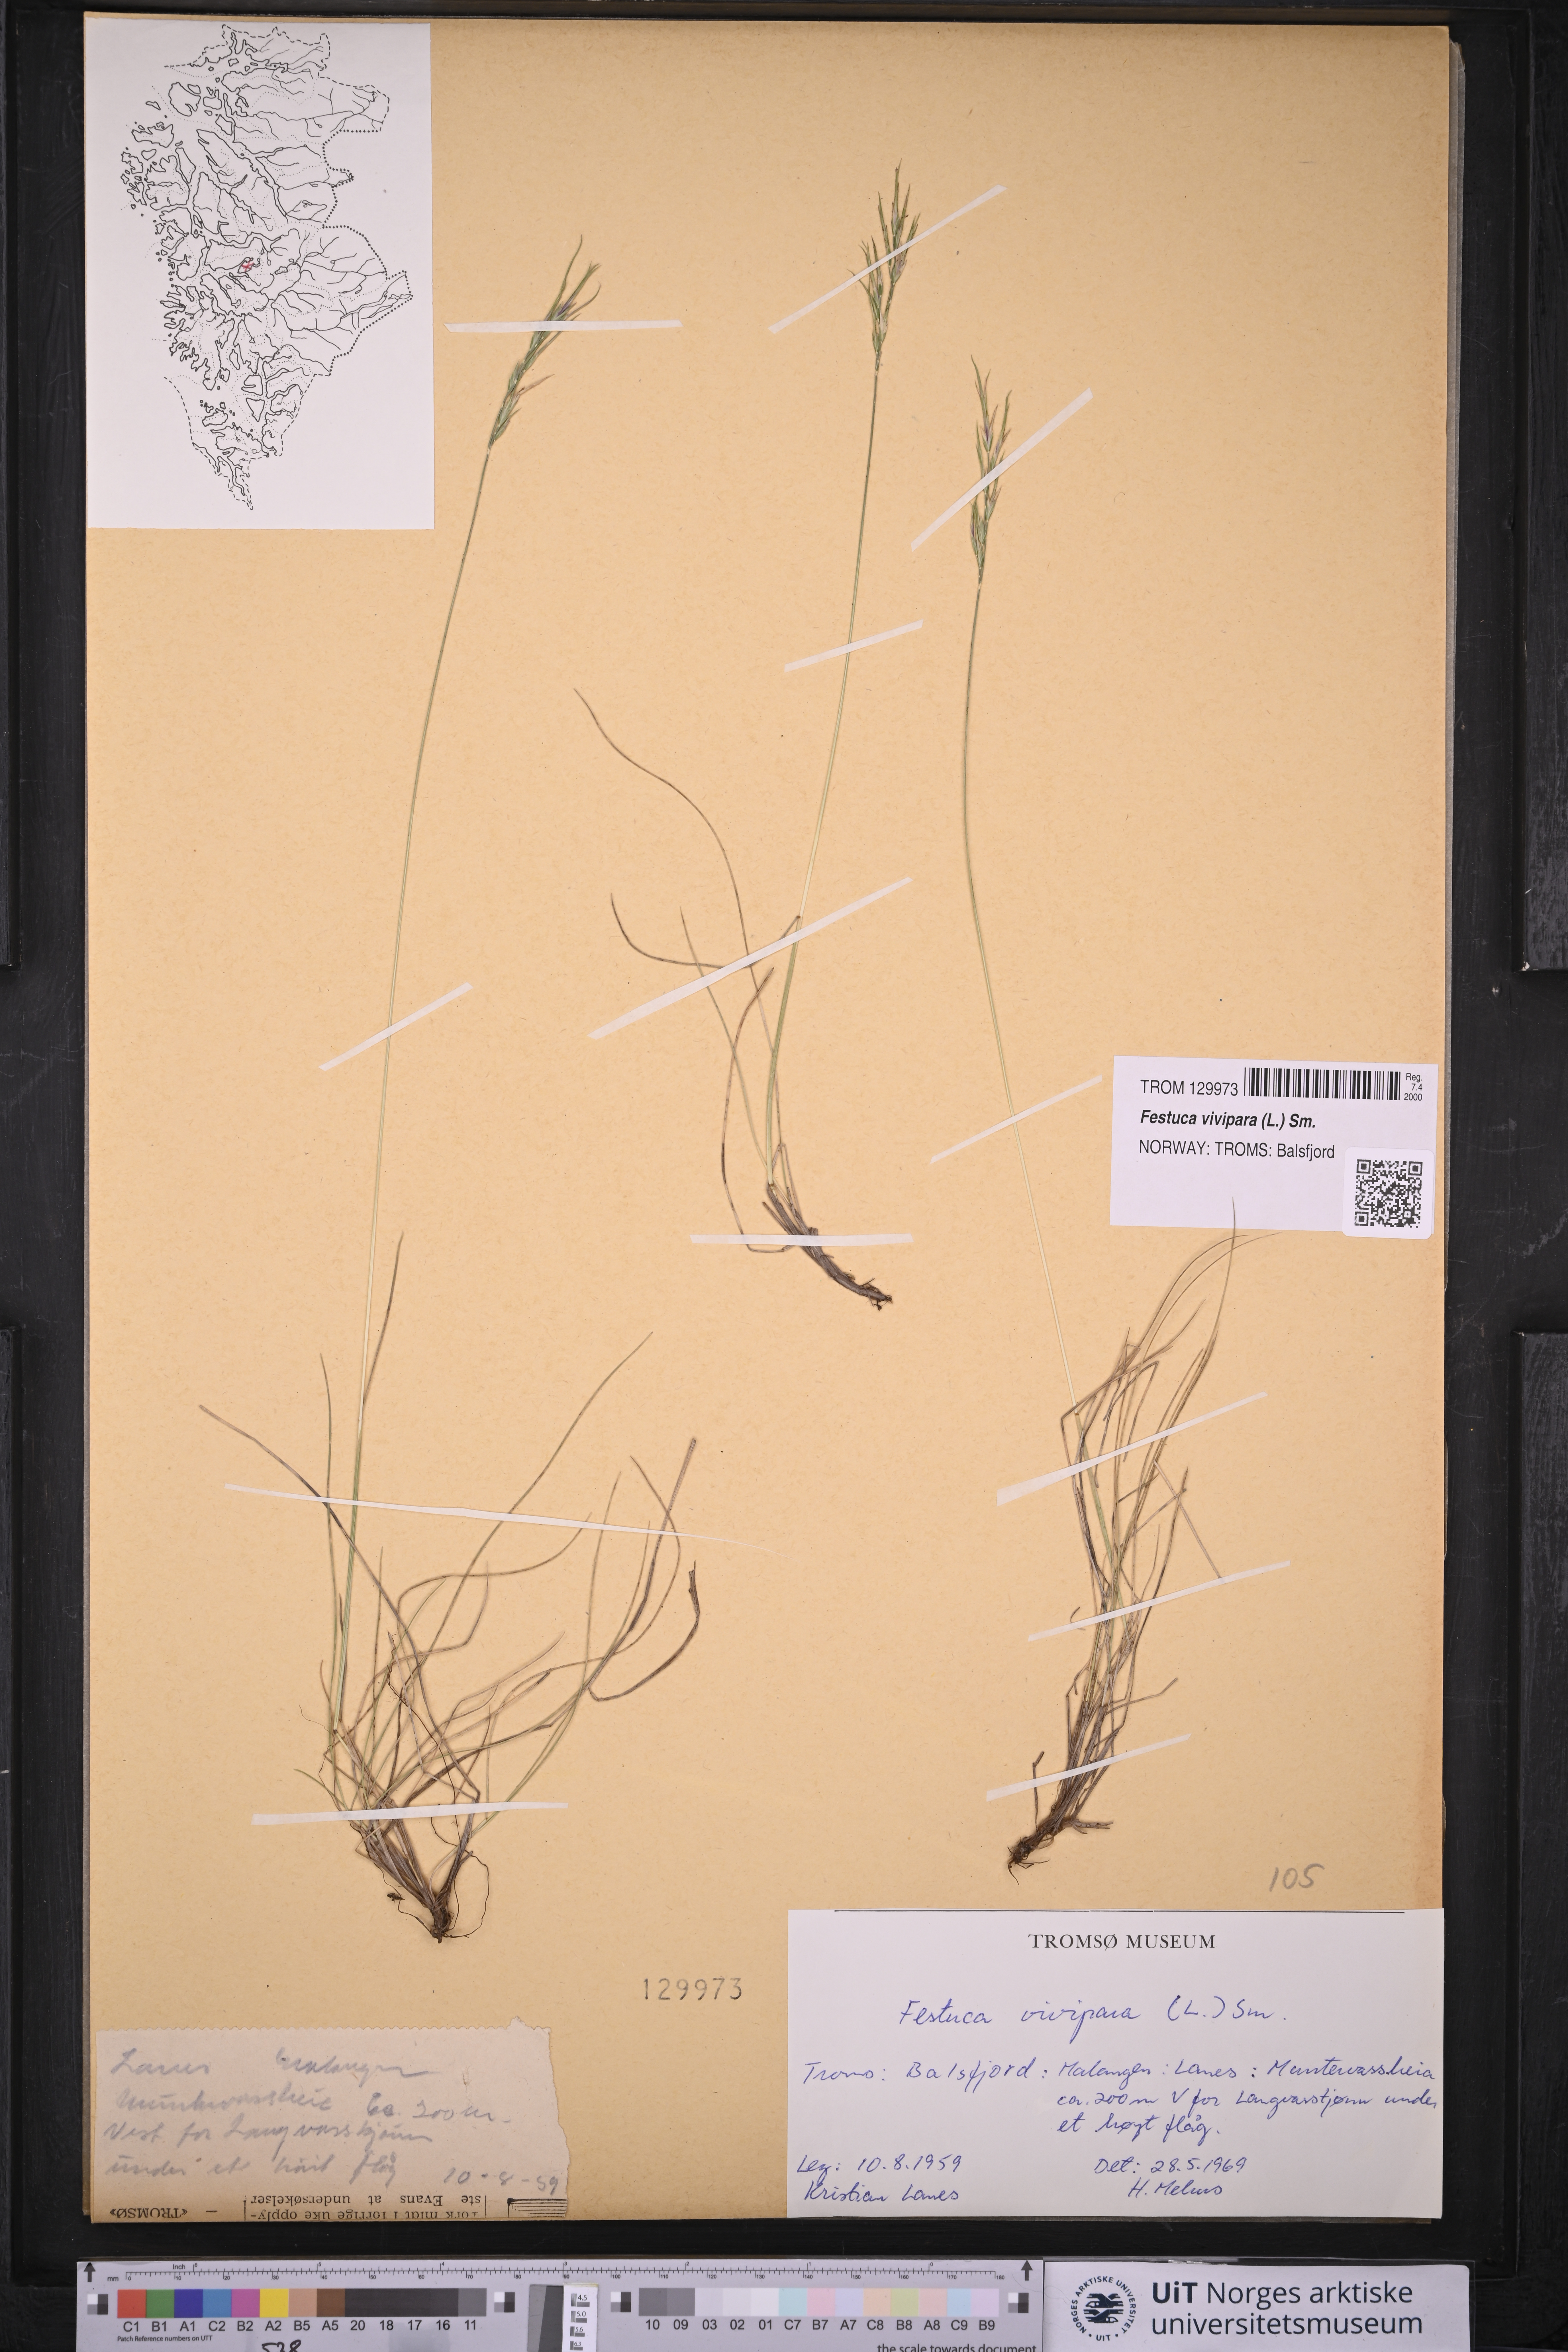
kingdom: Plantae
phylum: Tracheophyta
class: Liliopsida
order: Poales
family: Poaceae
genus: Festuca
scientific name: Festuca vivipara
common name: Viviparous sheep's-fescue
